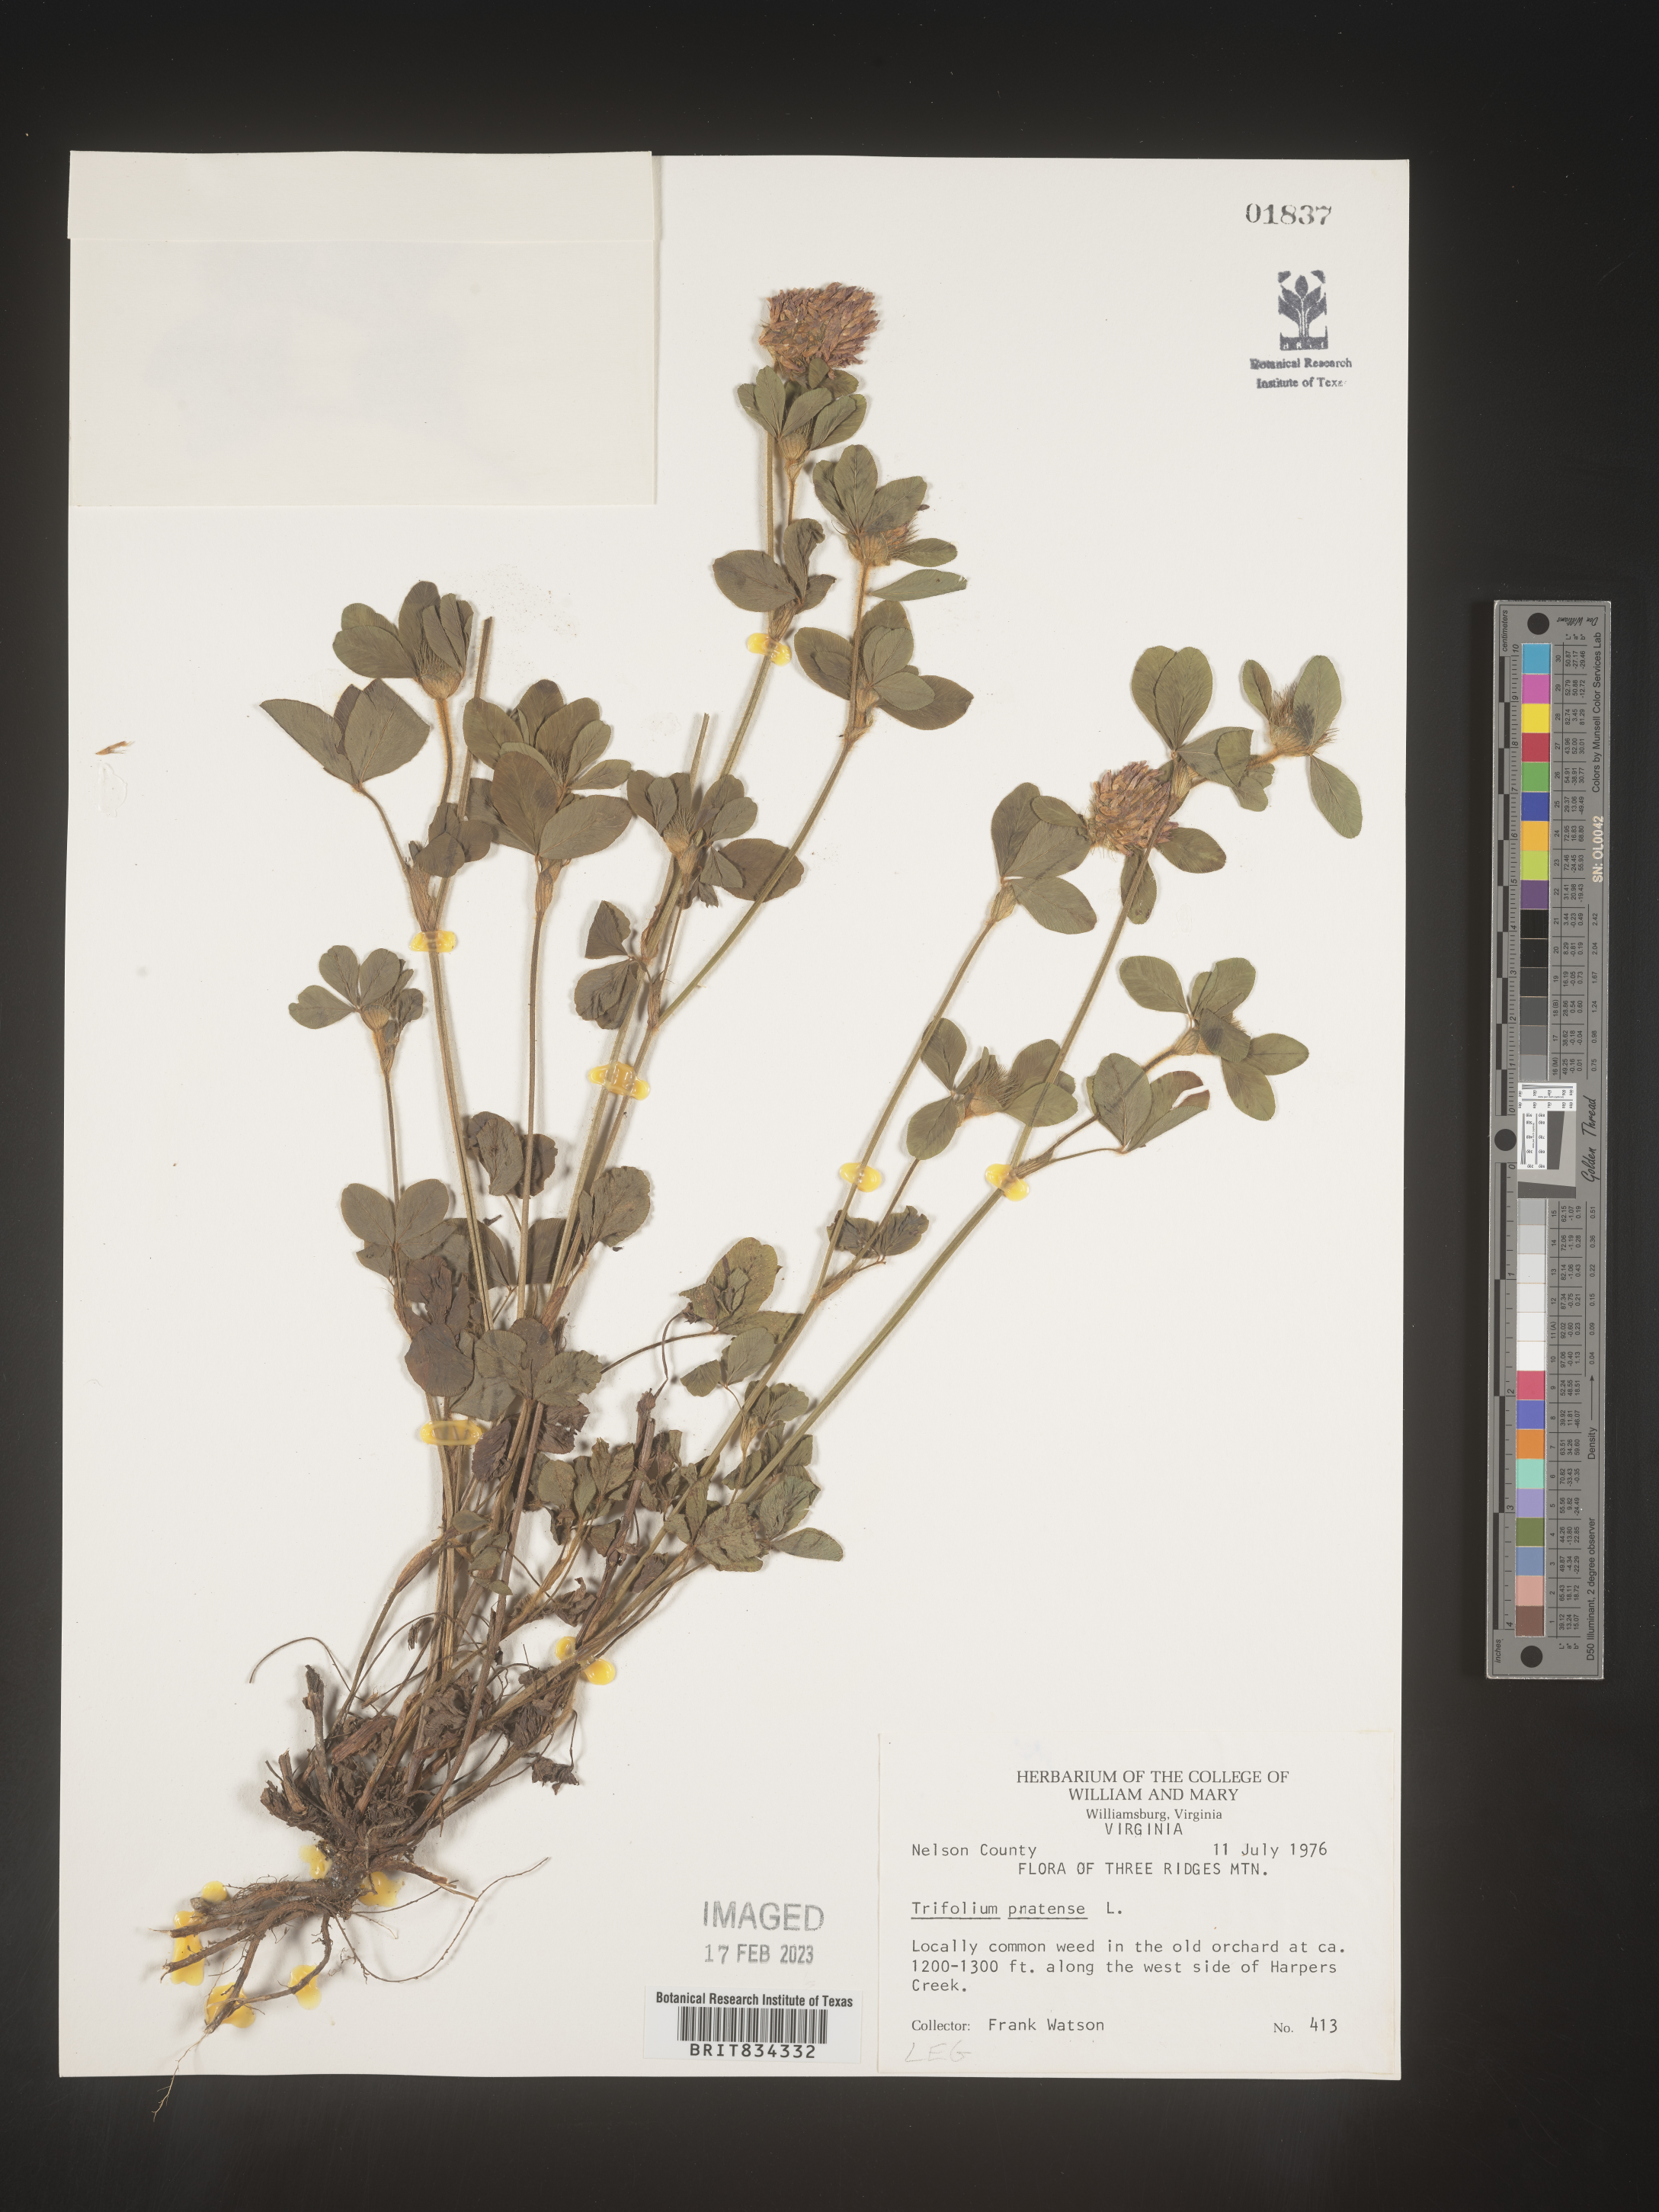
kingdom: Plantae
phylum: Tracheophyta
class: Magnoliopsida
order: Fabales
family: Fabaceae
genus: Trifolium
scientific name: Trifolium pratense
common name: Red clover
